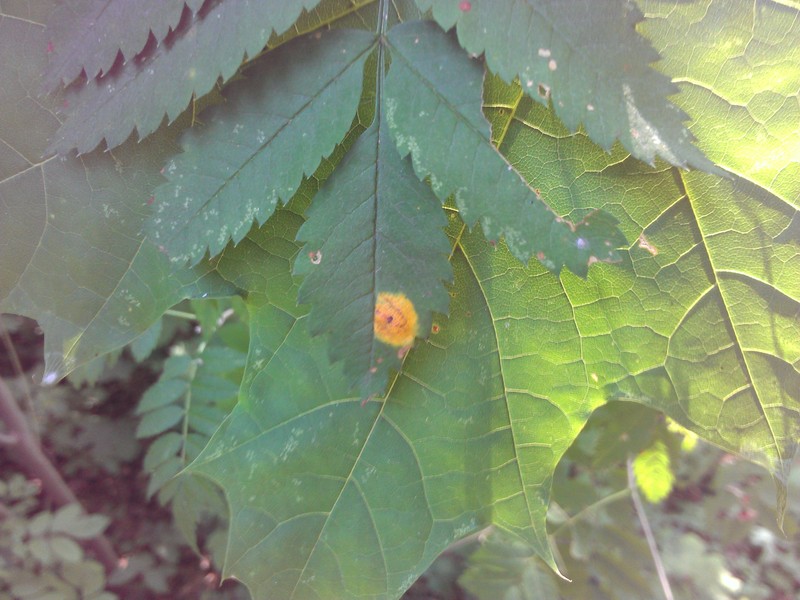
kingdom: Fungi
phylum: Basidiomycota
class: Pucciniomycetes
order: Pucciniales
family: Gymnosporangiaceae
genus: Gymnosporangium
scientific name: Gymnosporangium cornutum
